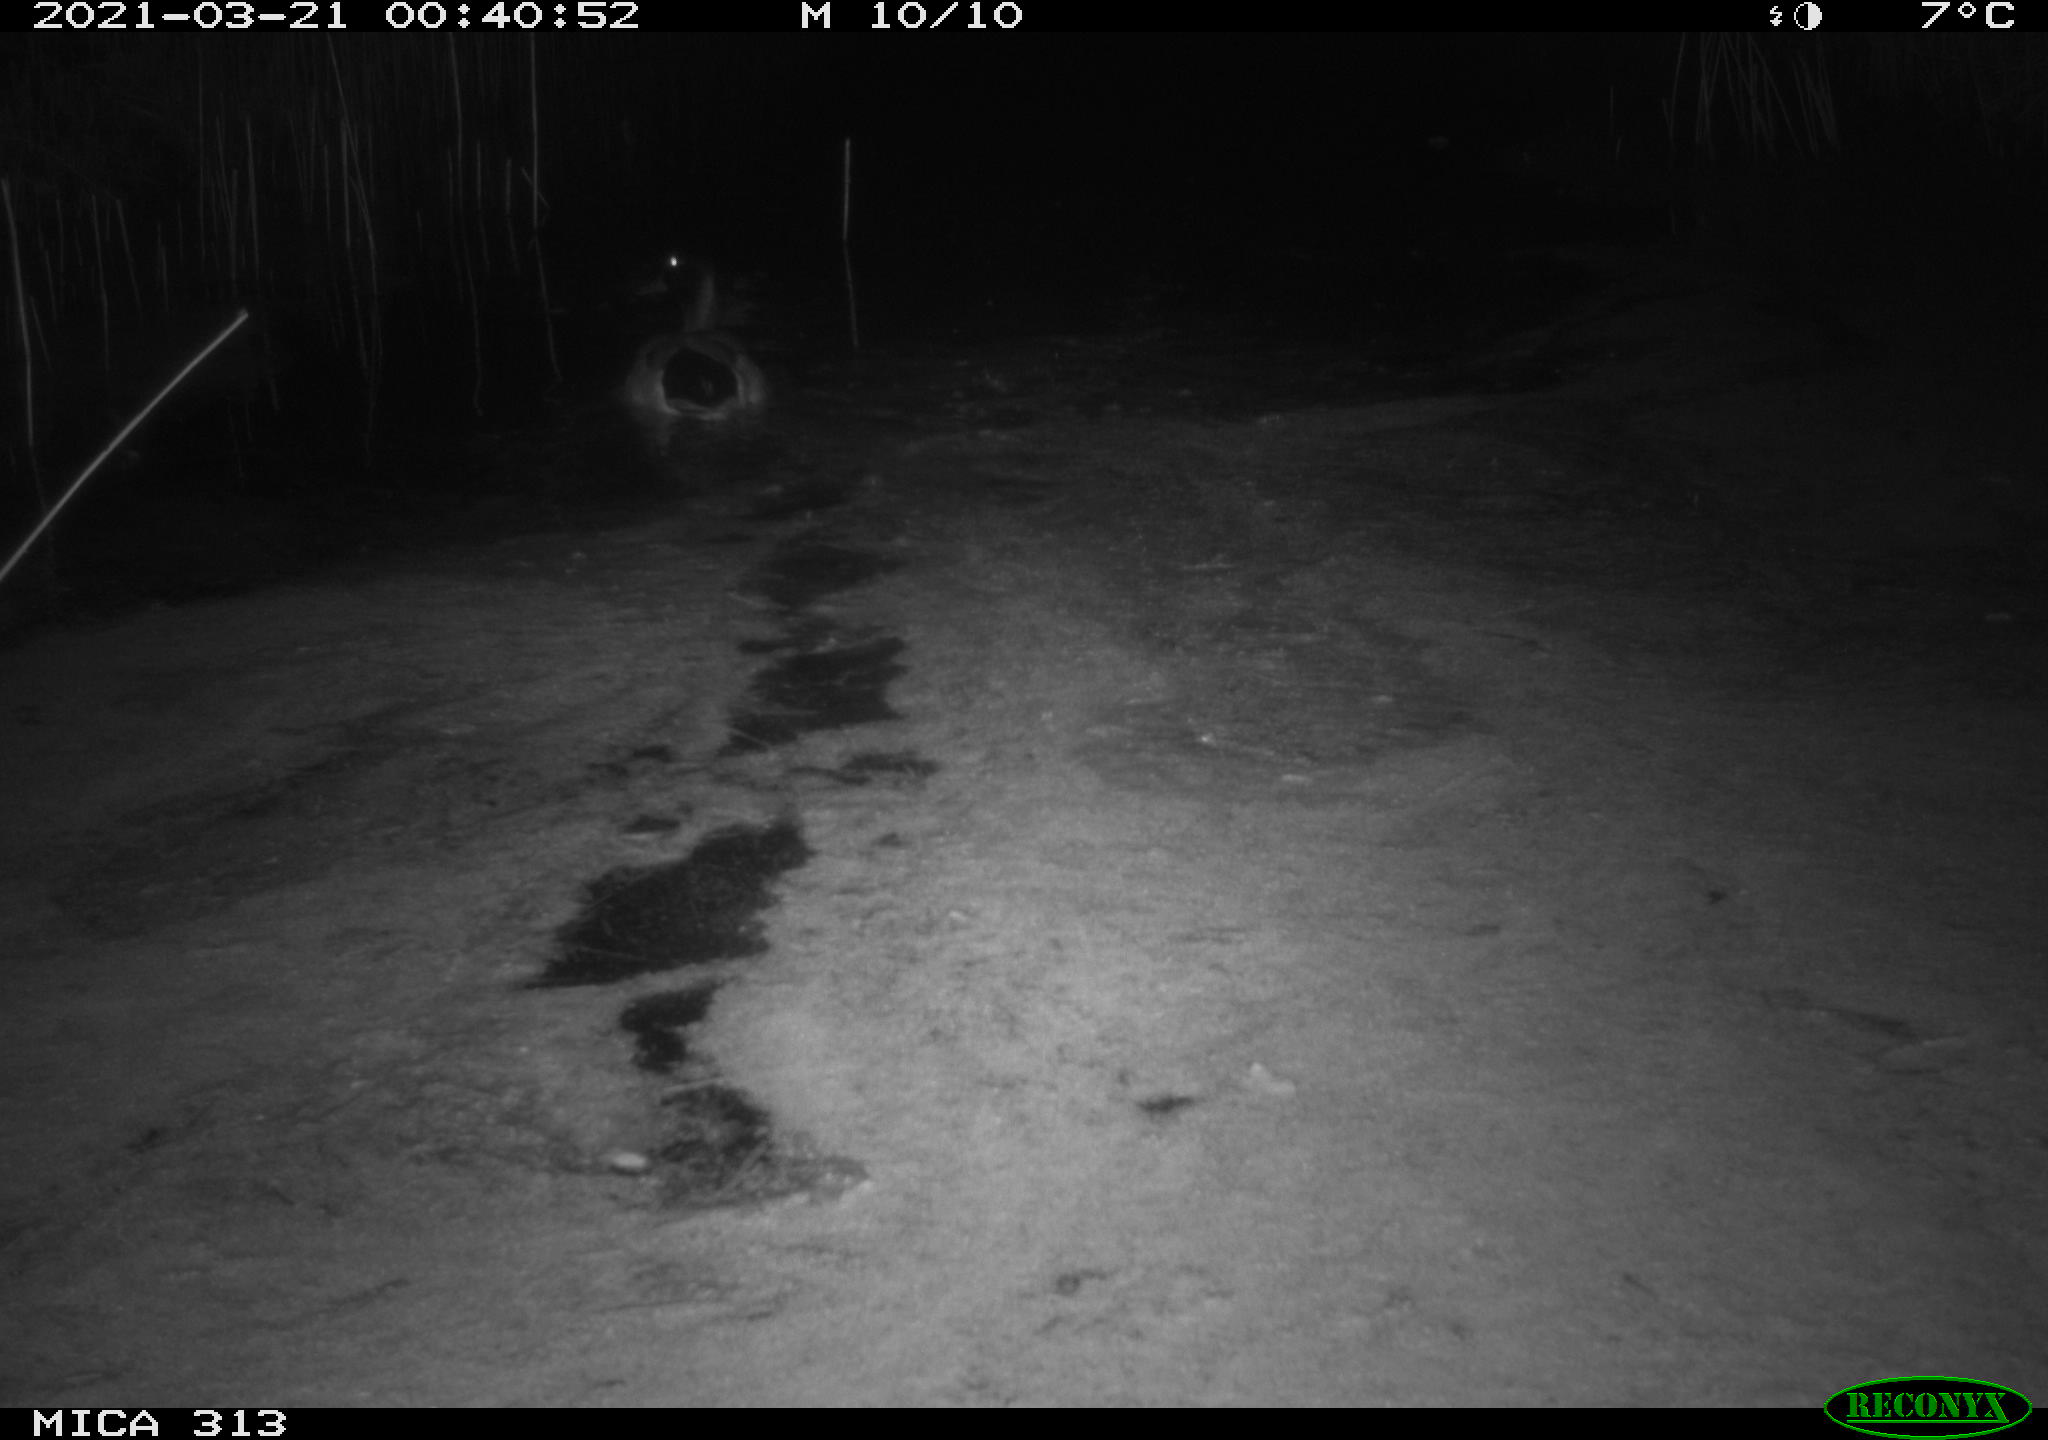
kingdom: Animalia
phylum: Chordata
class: Aves
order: Anseriformes
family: Anatidae
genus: Anas
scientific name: Anas platyrhynchos
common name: Mallard
